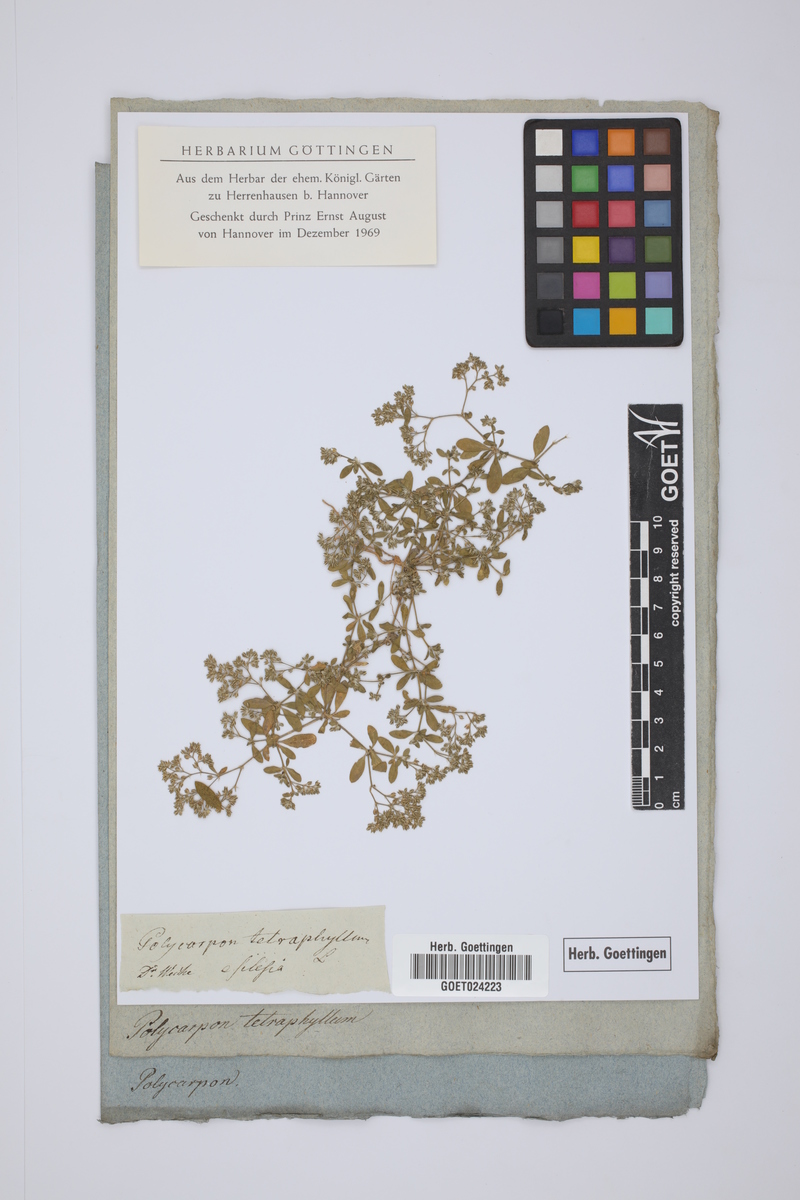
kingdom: Plantae
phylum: Tracheophyta
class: Magnoliopsida
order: Caryophyllales
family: Caryophyllaceae
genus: Polycarpon
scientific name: Polycarpon tetraphyllum
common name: Four-leaved all-seed
